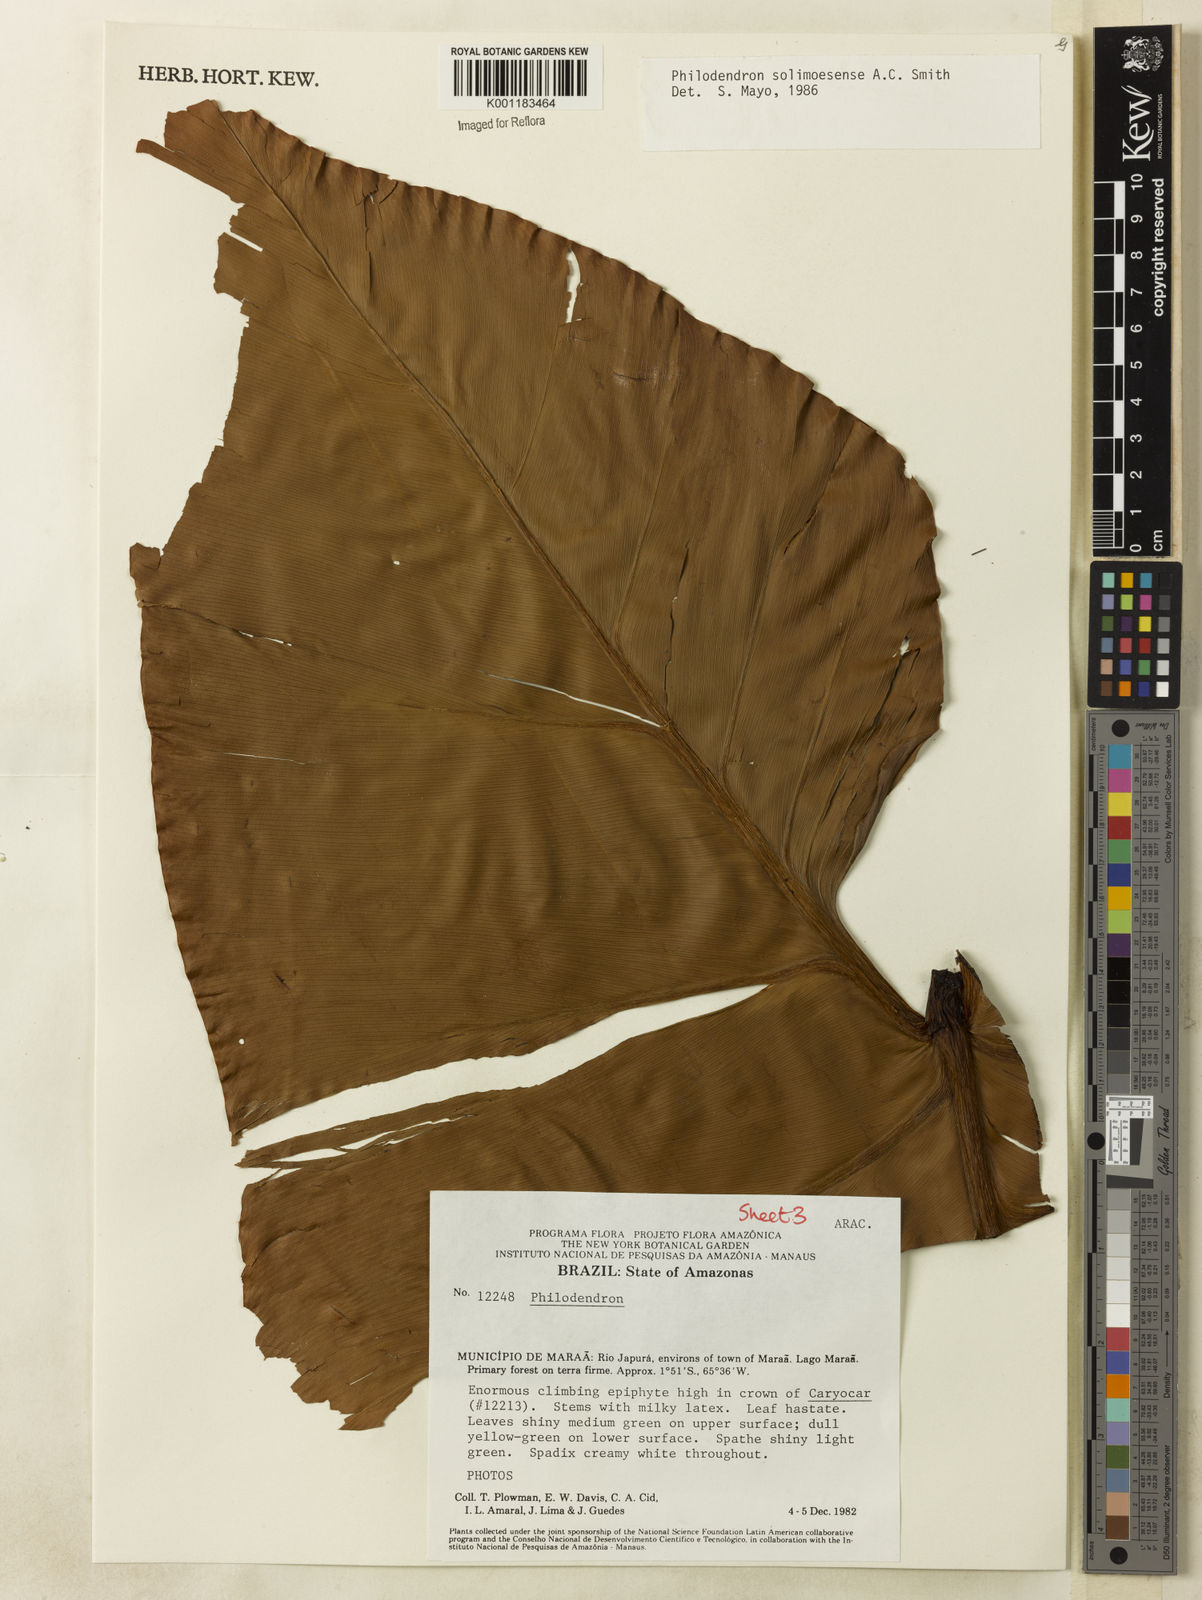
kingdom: Plantae
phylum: Tracheophyta
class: Liliopsida
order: Alismatales
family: Araceae
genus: Thaumatophyllum
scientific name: Thaumatophyllum solimoesense
